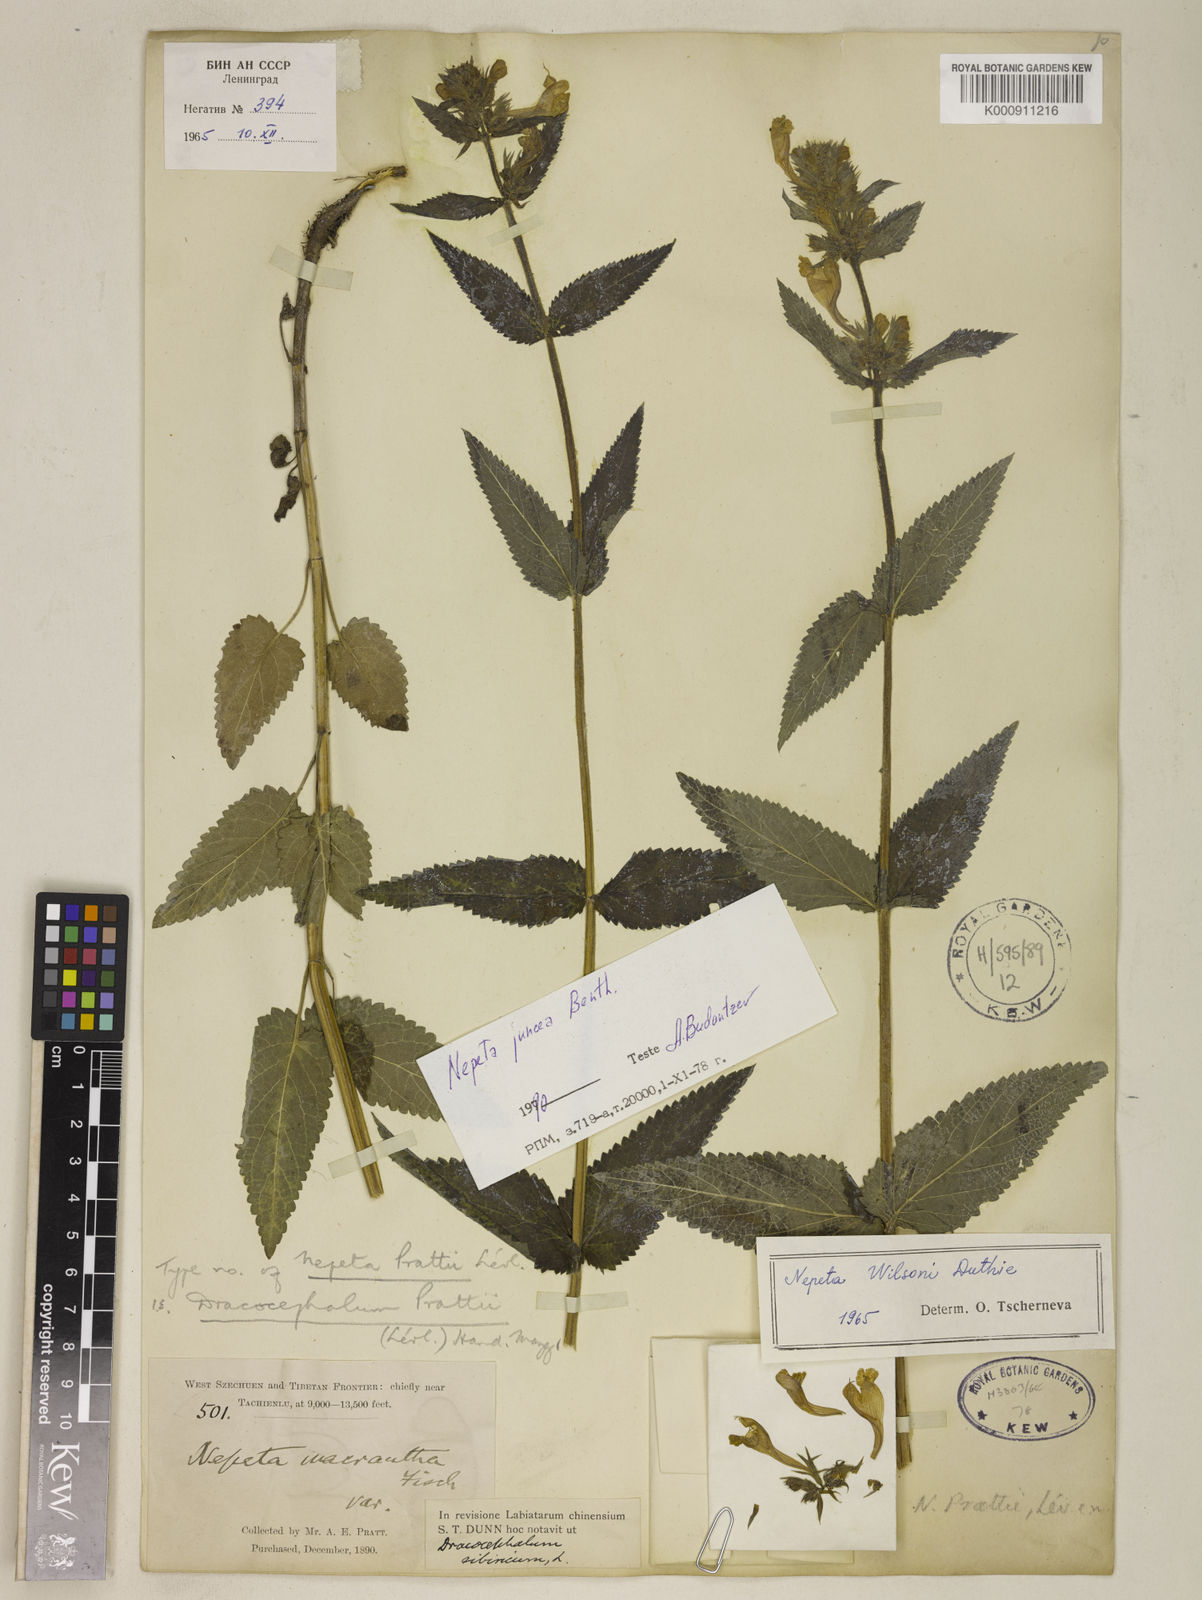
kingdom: Plantae
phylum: Tracheophyta
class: Magnoliopsida
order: Lamiales
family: Lamiaceae
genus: Nepeta
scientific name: Nepeta wilsonii
